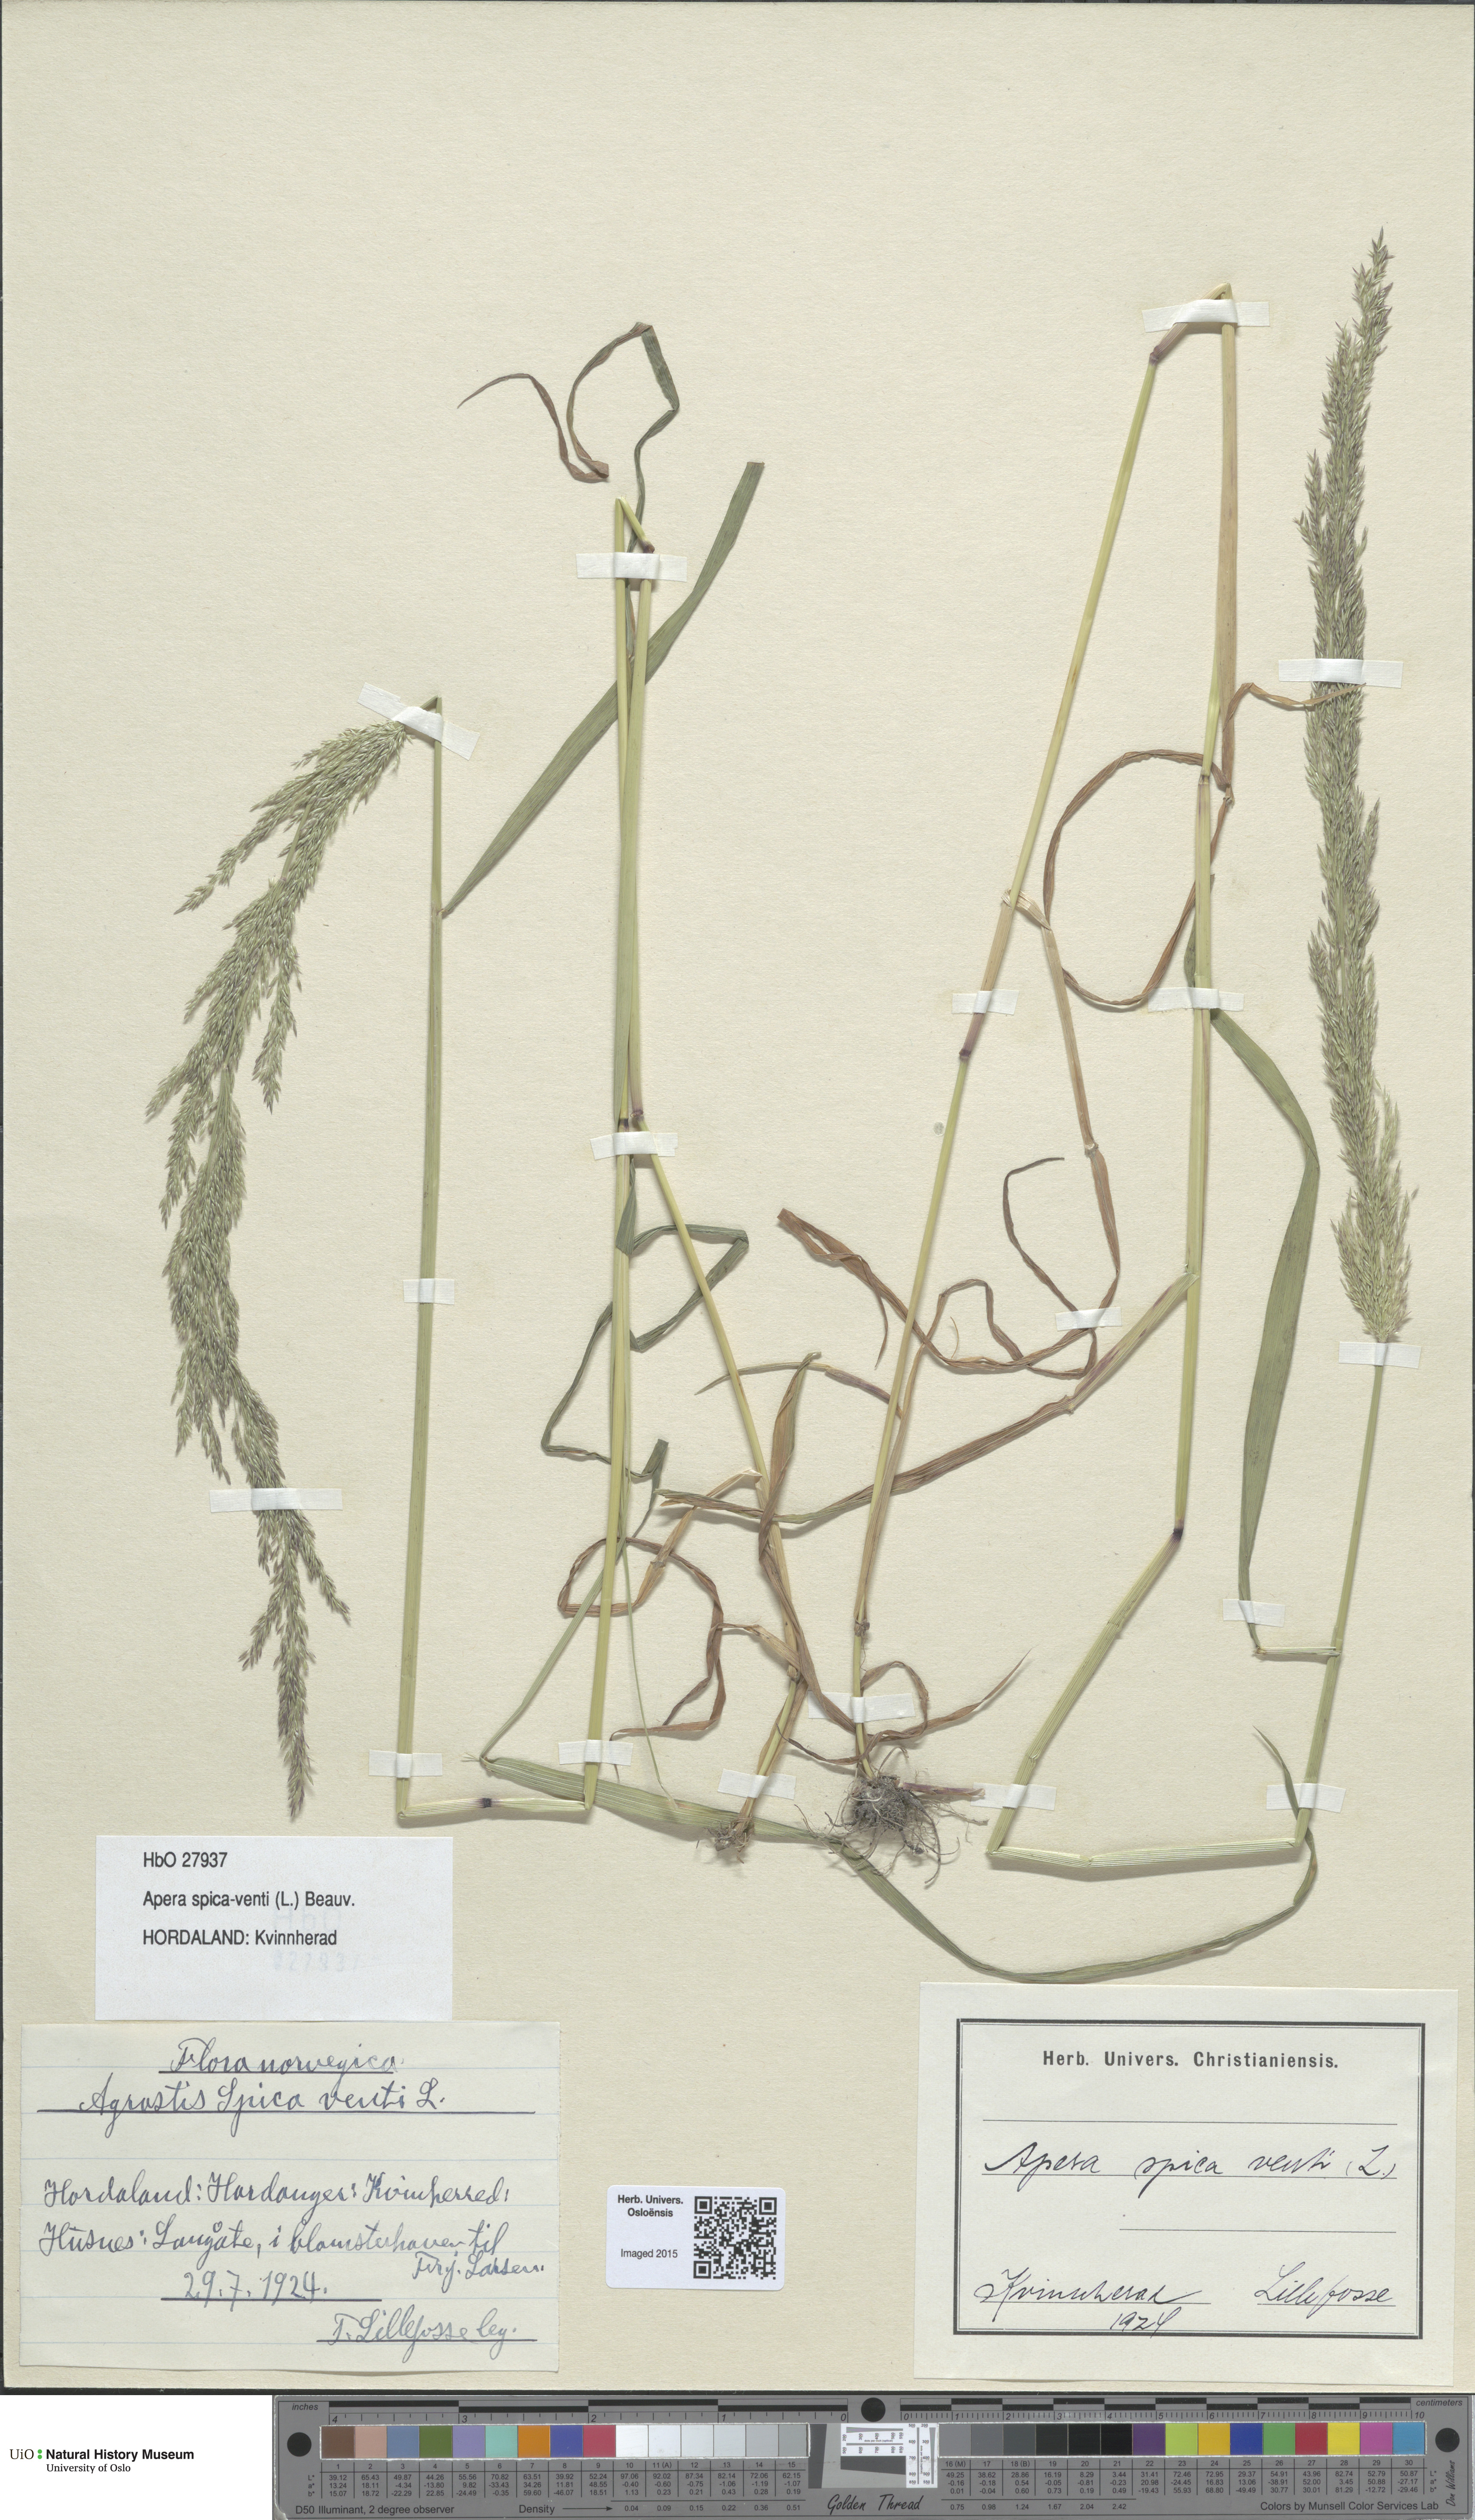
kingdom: Plantae
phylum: Tracheophyta
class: Liliopsida
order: Poales
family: Poaceae
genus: Apera
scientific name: Apera spica-venti
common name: Loose silky-bent
